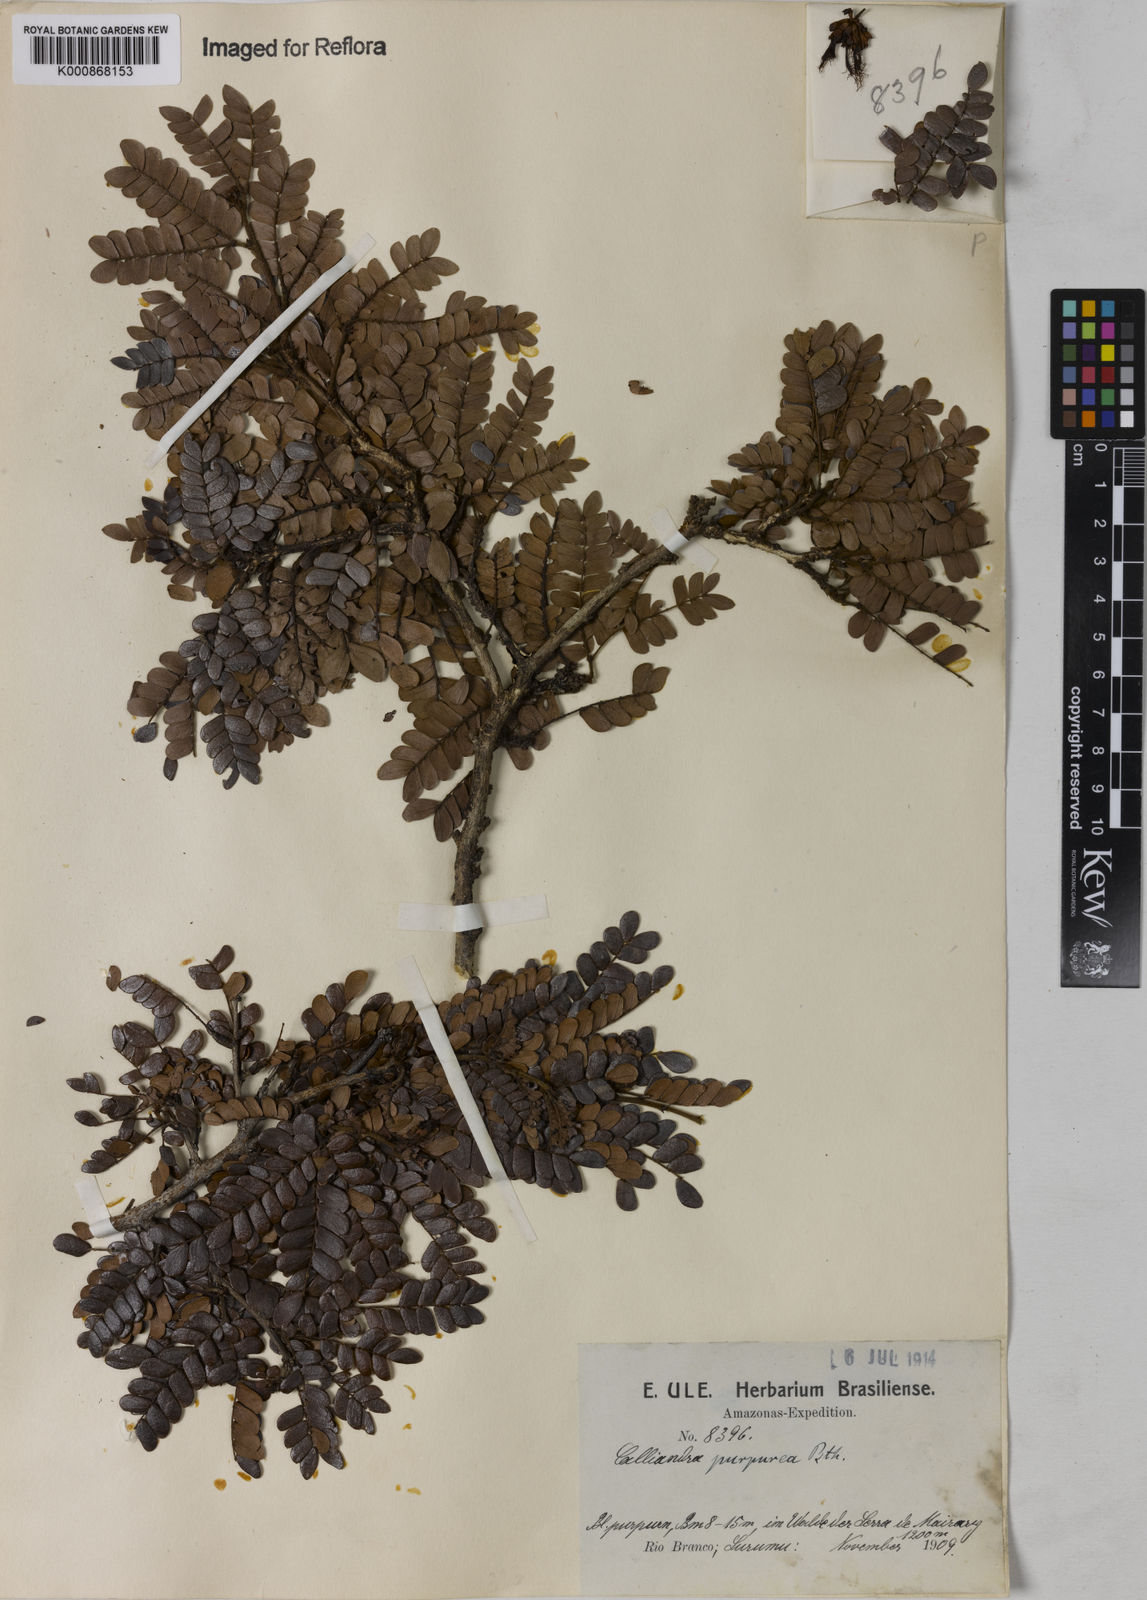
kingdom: Plantae
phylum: Tracheophyta
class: Magnoliopsida
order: Fabales
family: Fabaceae
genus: Calliandra
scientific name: Calliandra purpurea
